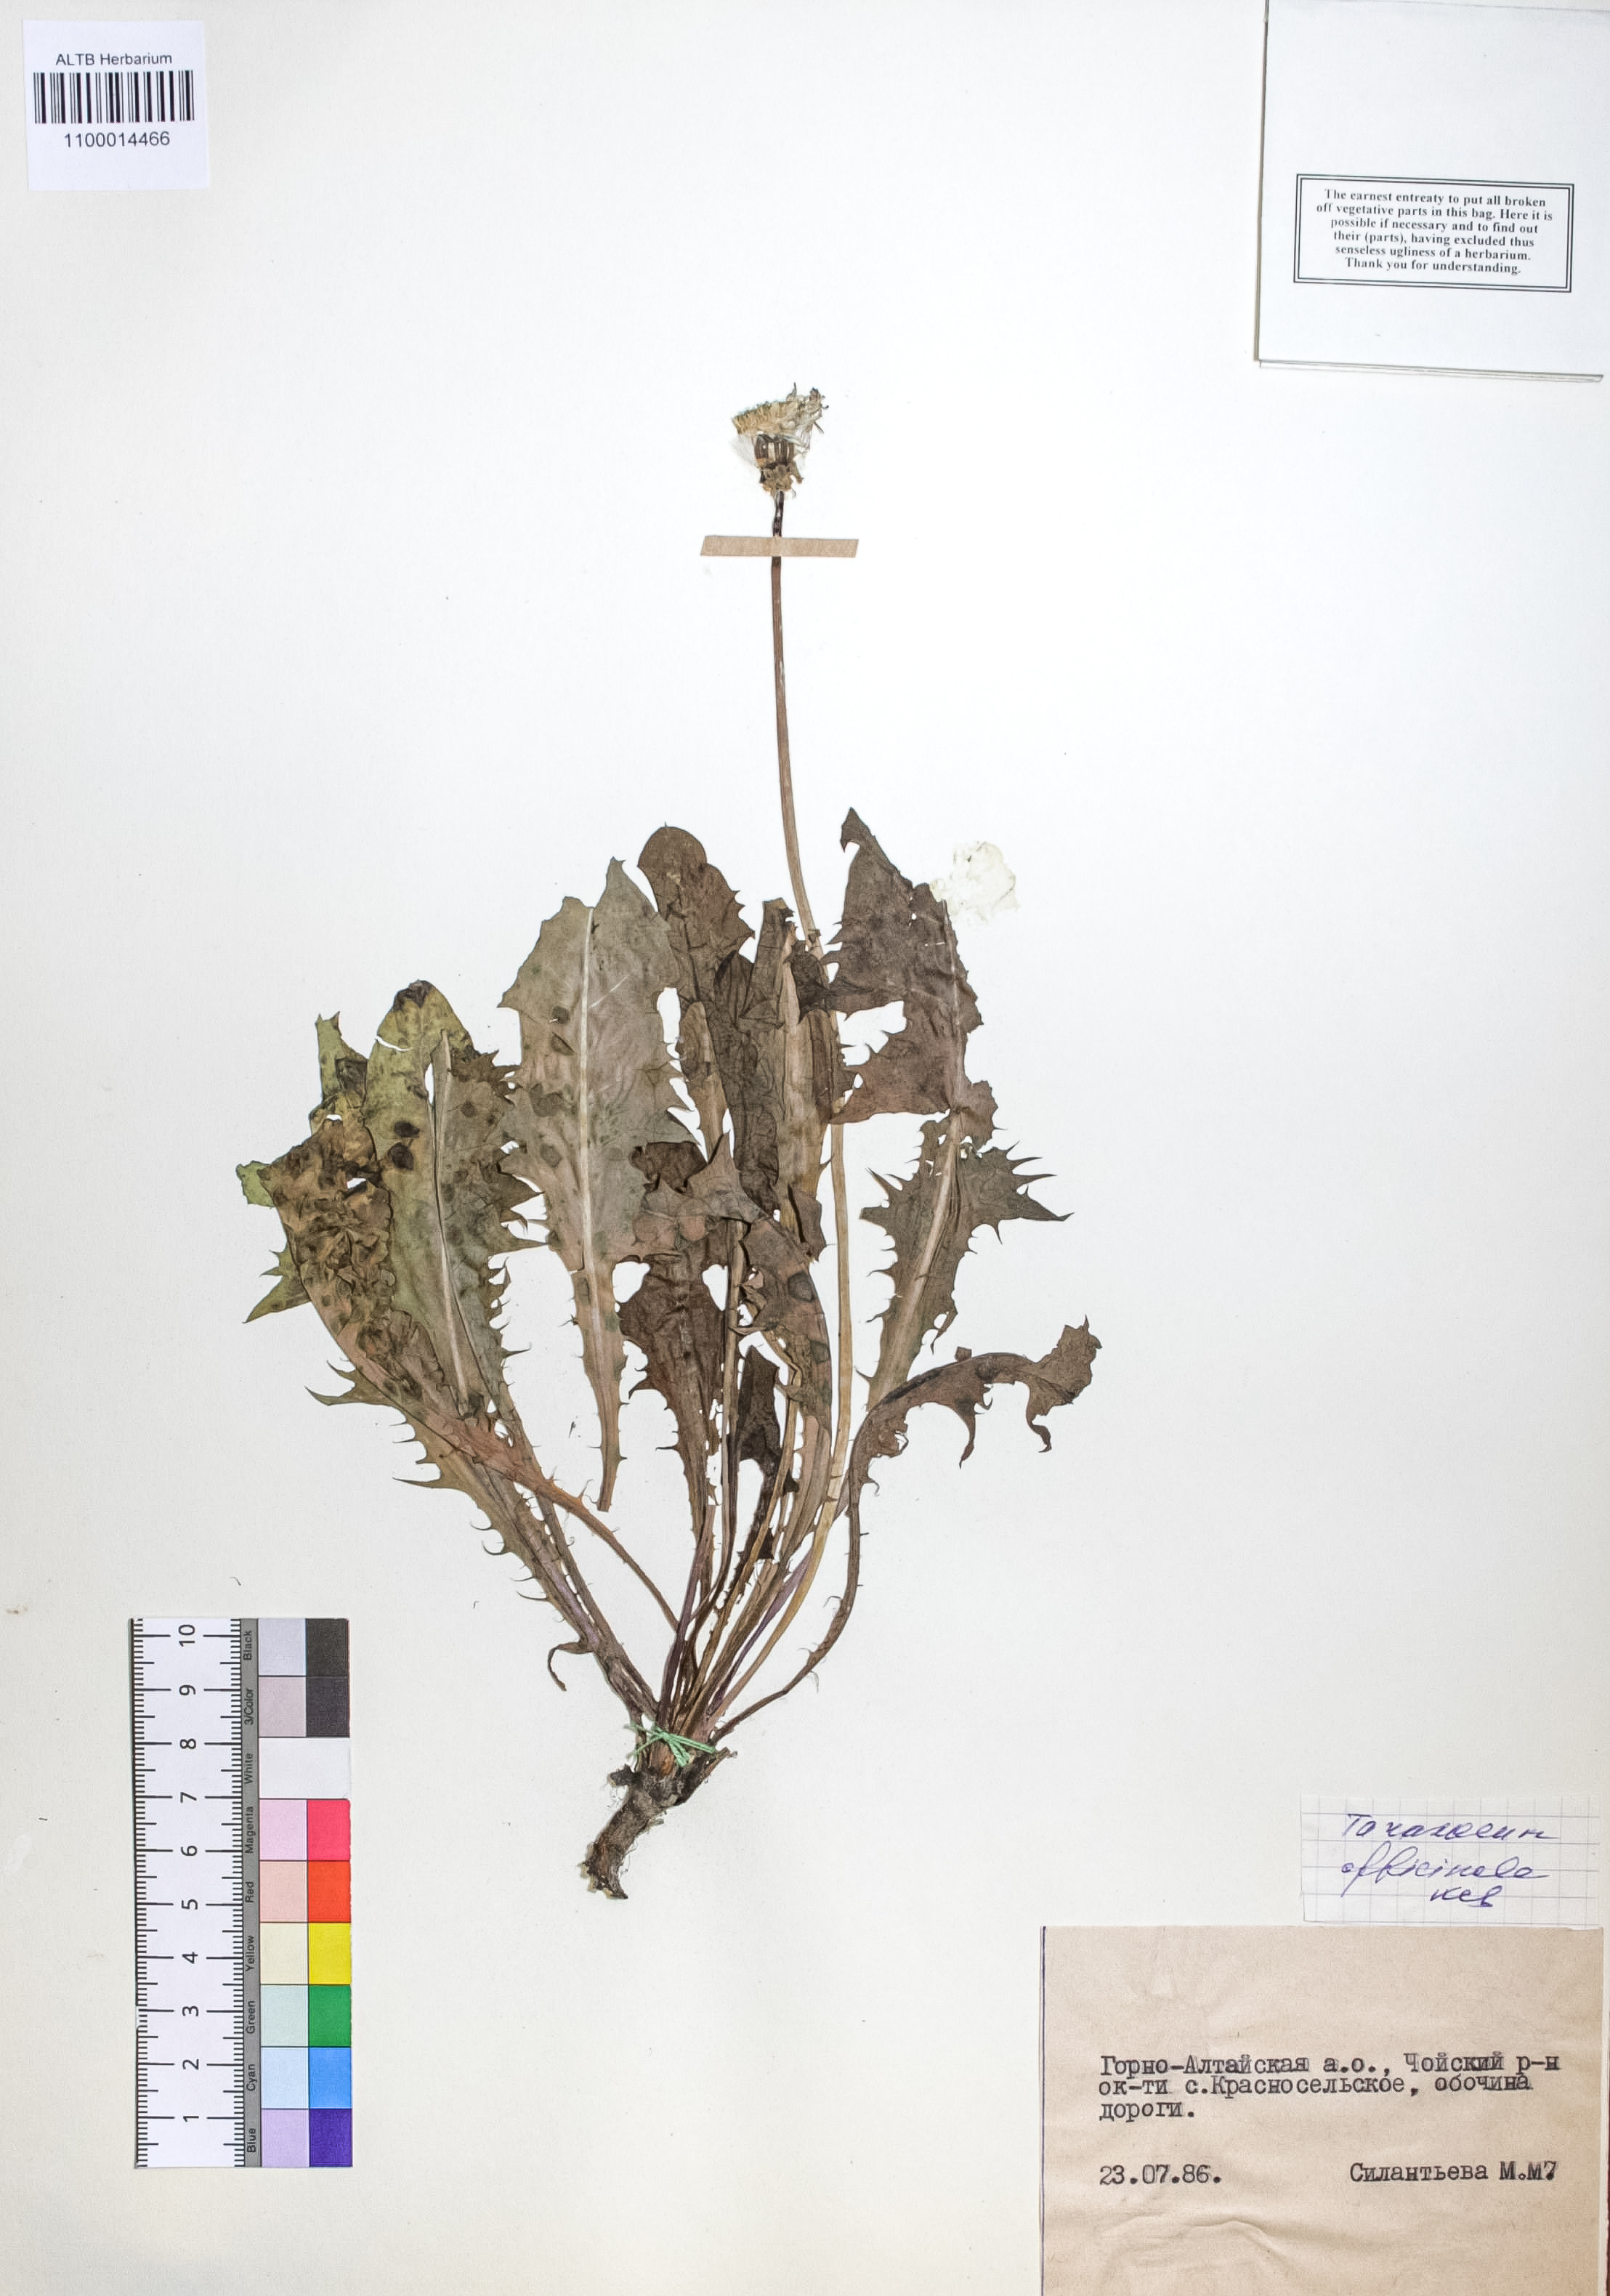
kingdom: Plantae
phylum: Tracheophyta
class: Magnoliopsida
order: Asterales
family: Asteraceae
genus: Taraxacum
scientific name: Taraxacum officinale
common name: Common dandelion
